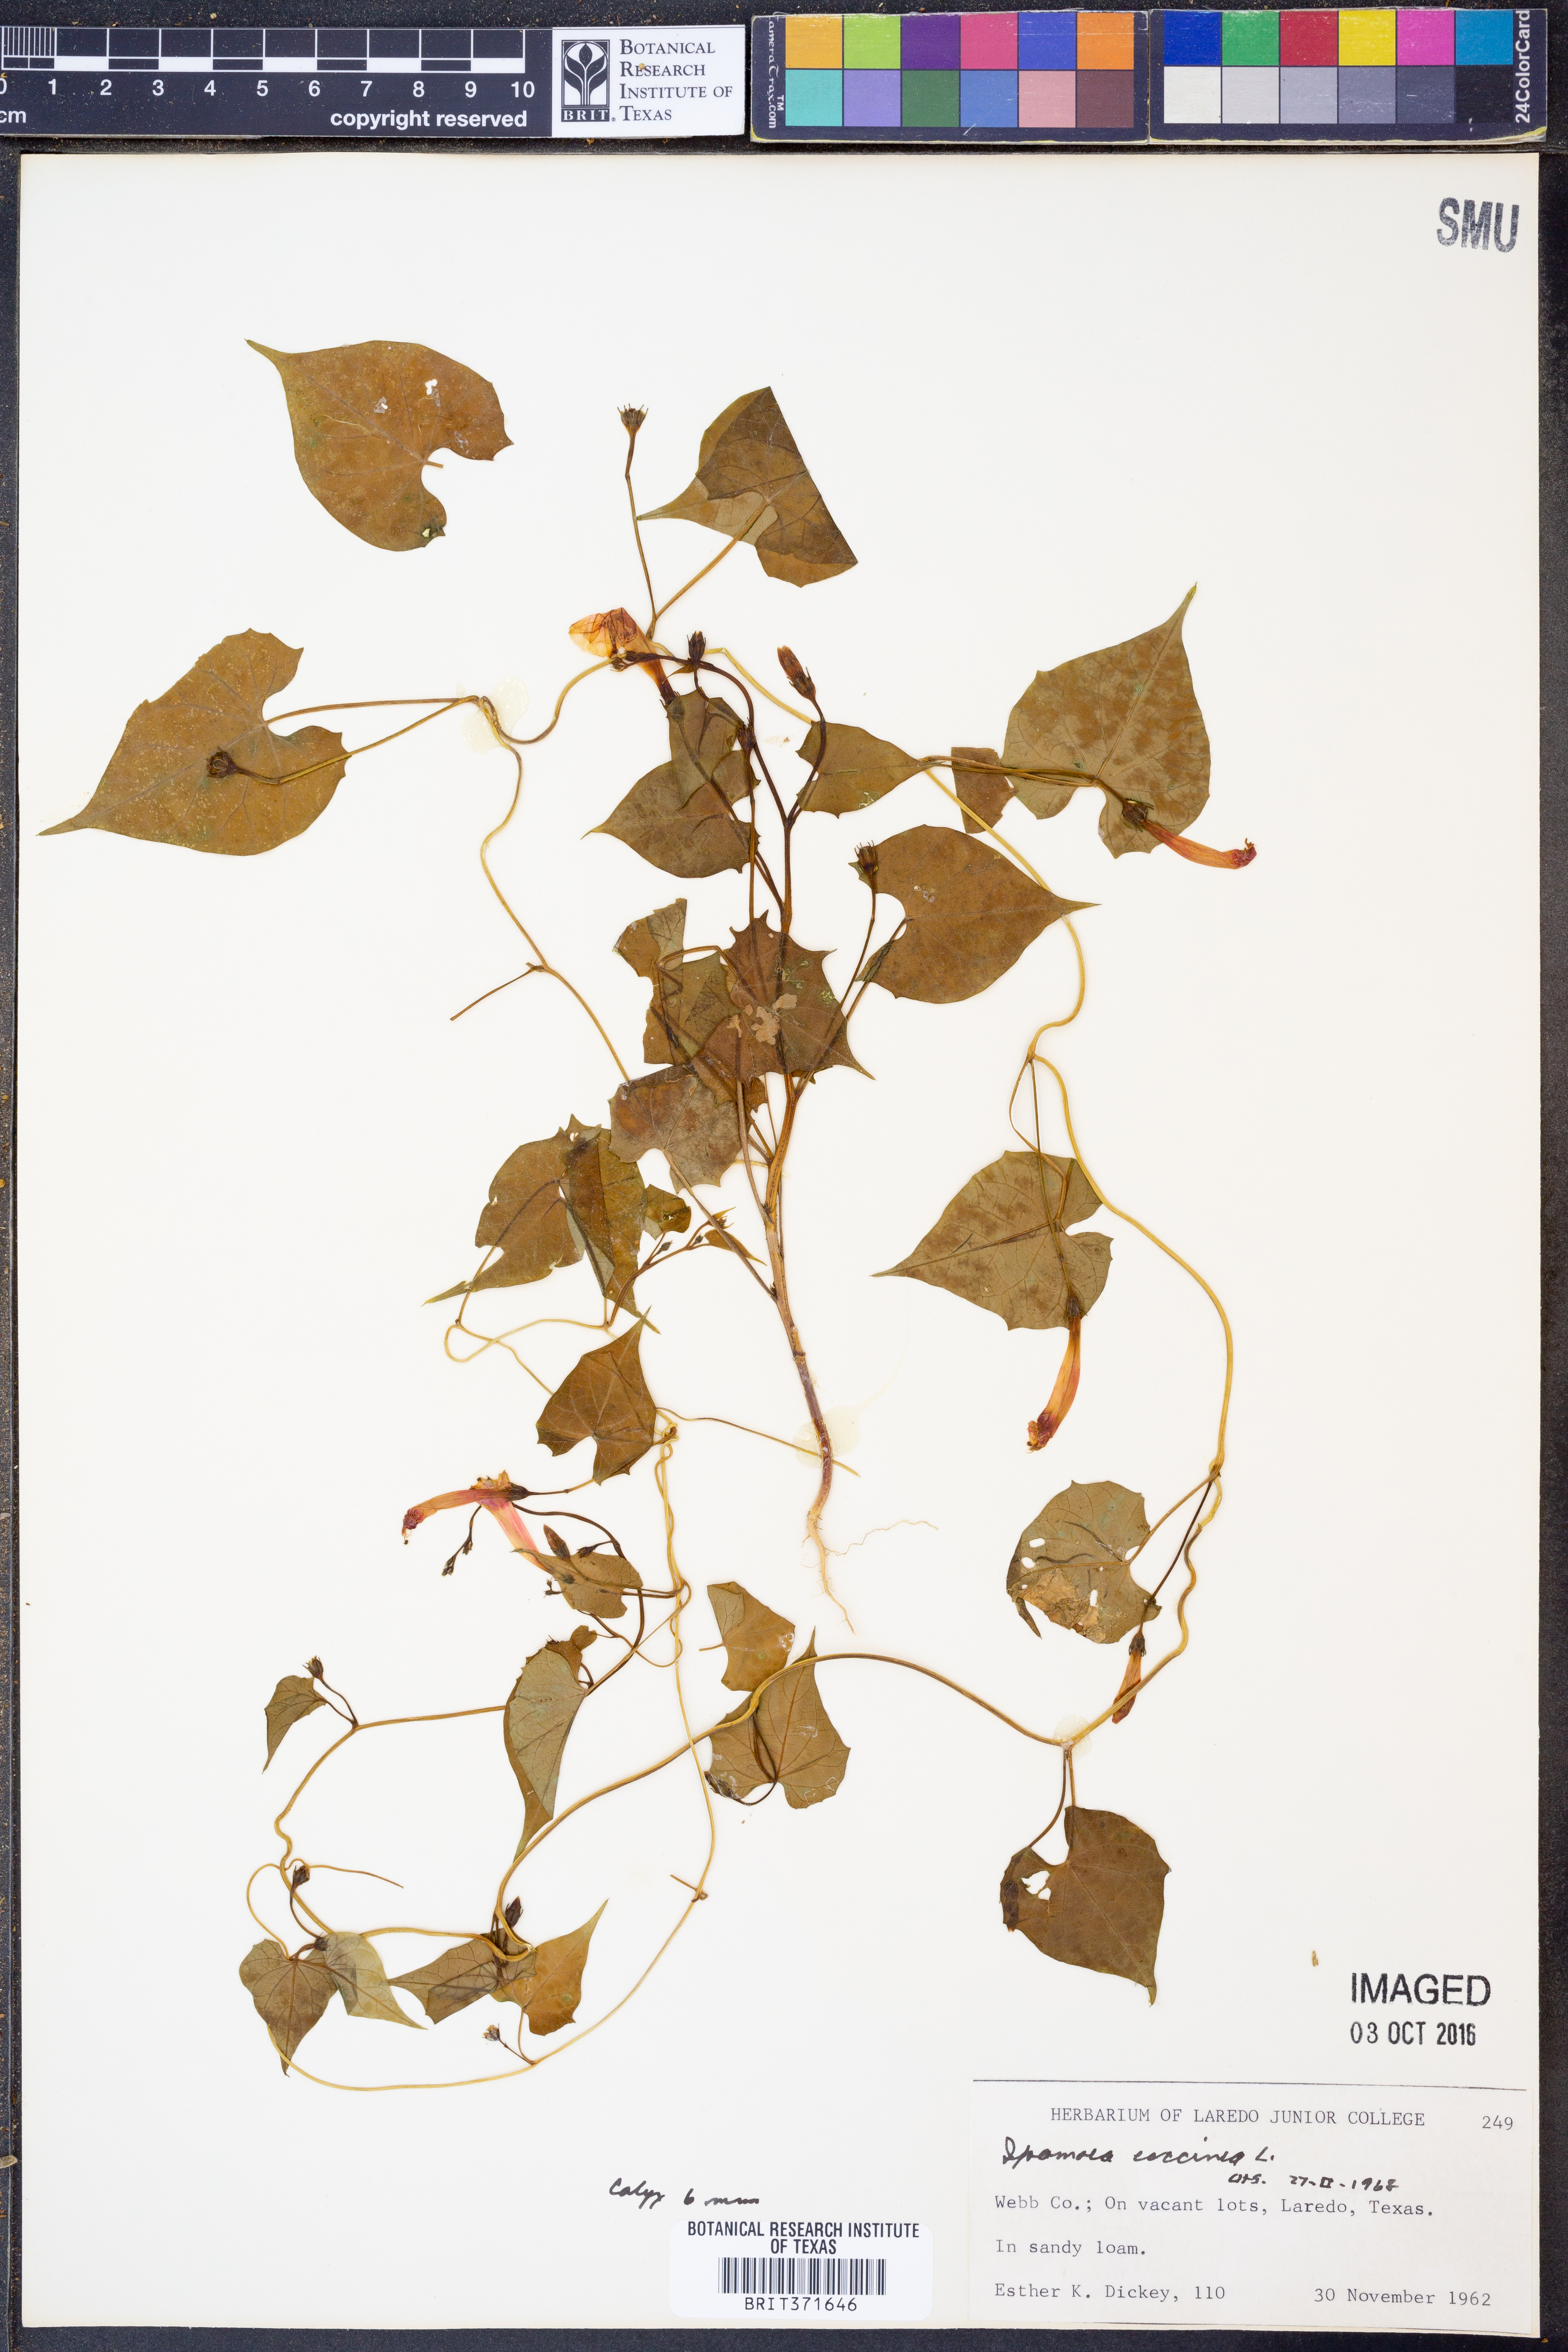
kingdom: Plantae
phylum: Tracheophyta
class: Magnoliopsida
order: Solanales
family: Convolvulaceae
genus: Ipomoea
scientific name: Ipomoea coccinea
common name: Red morning-glory
